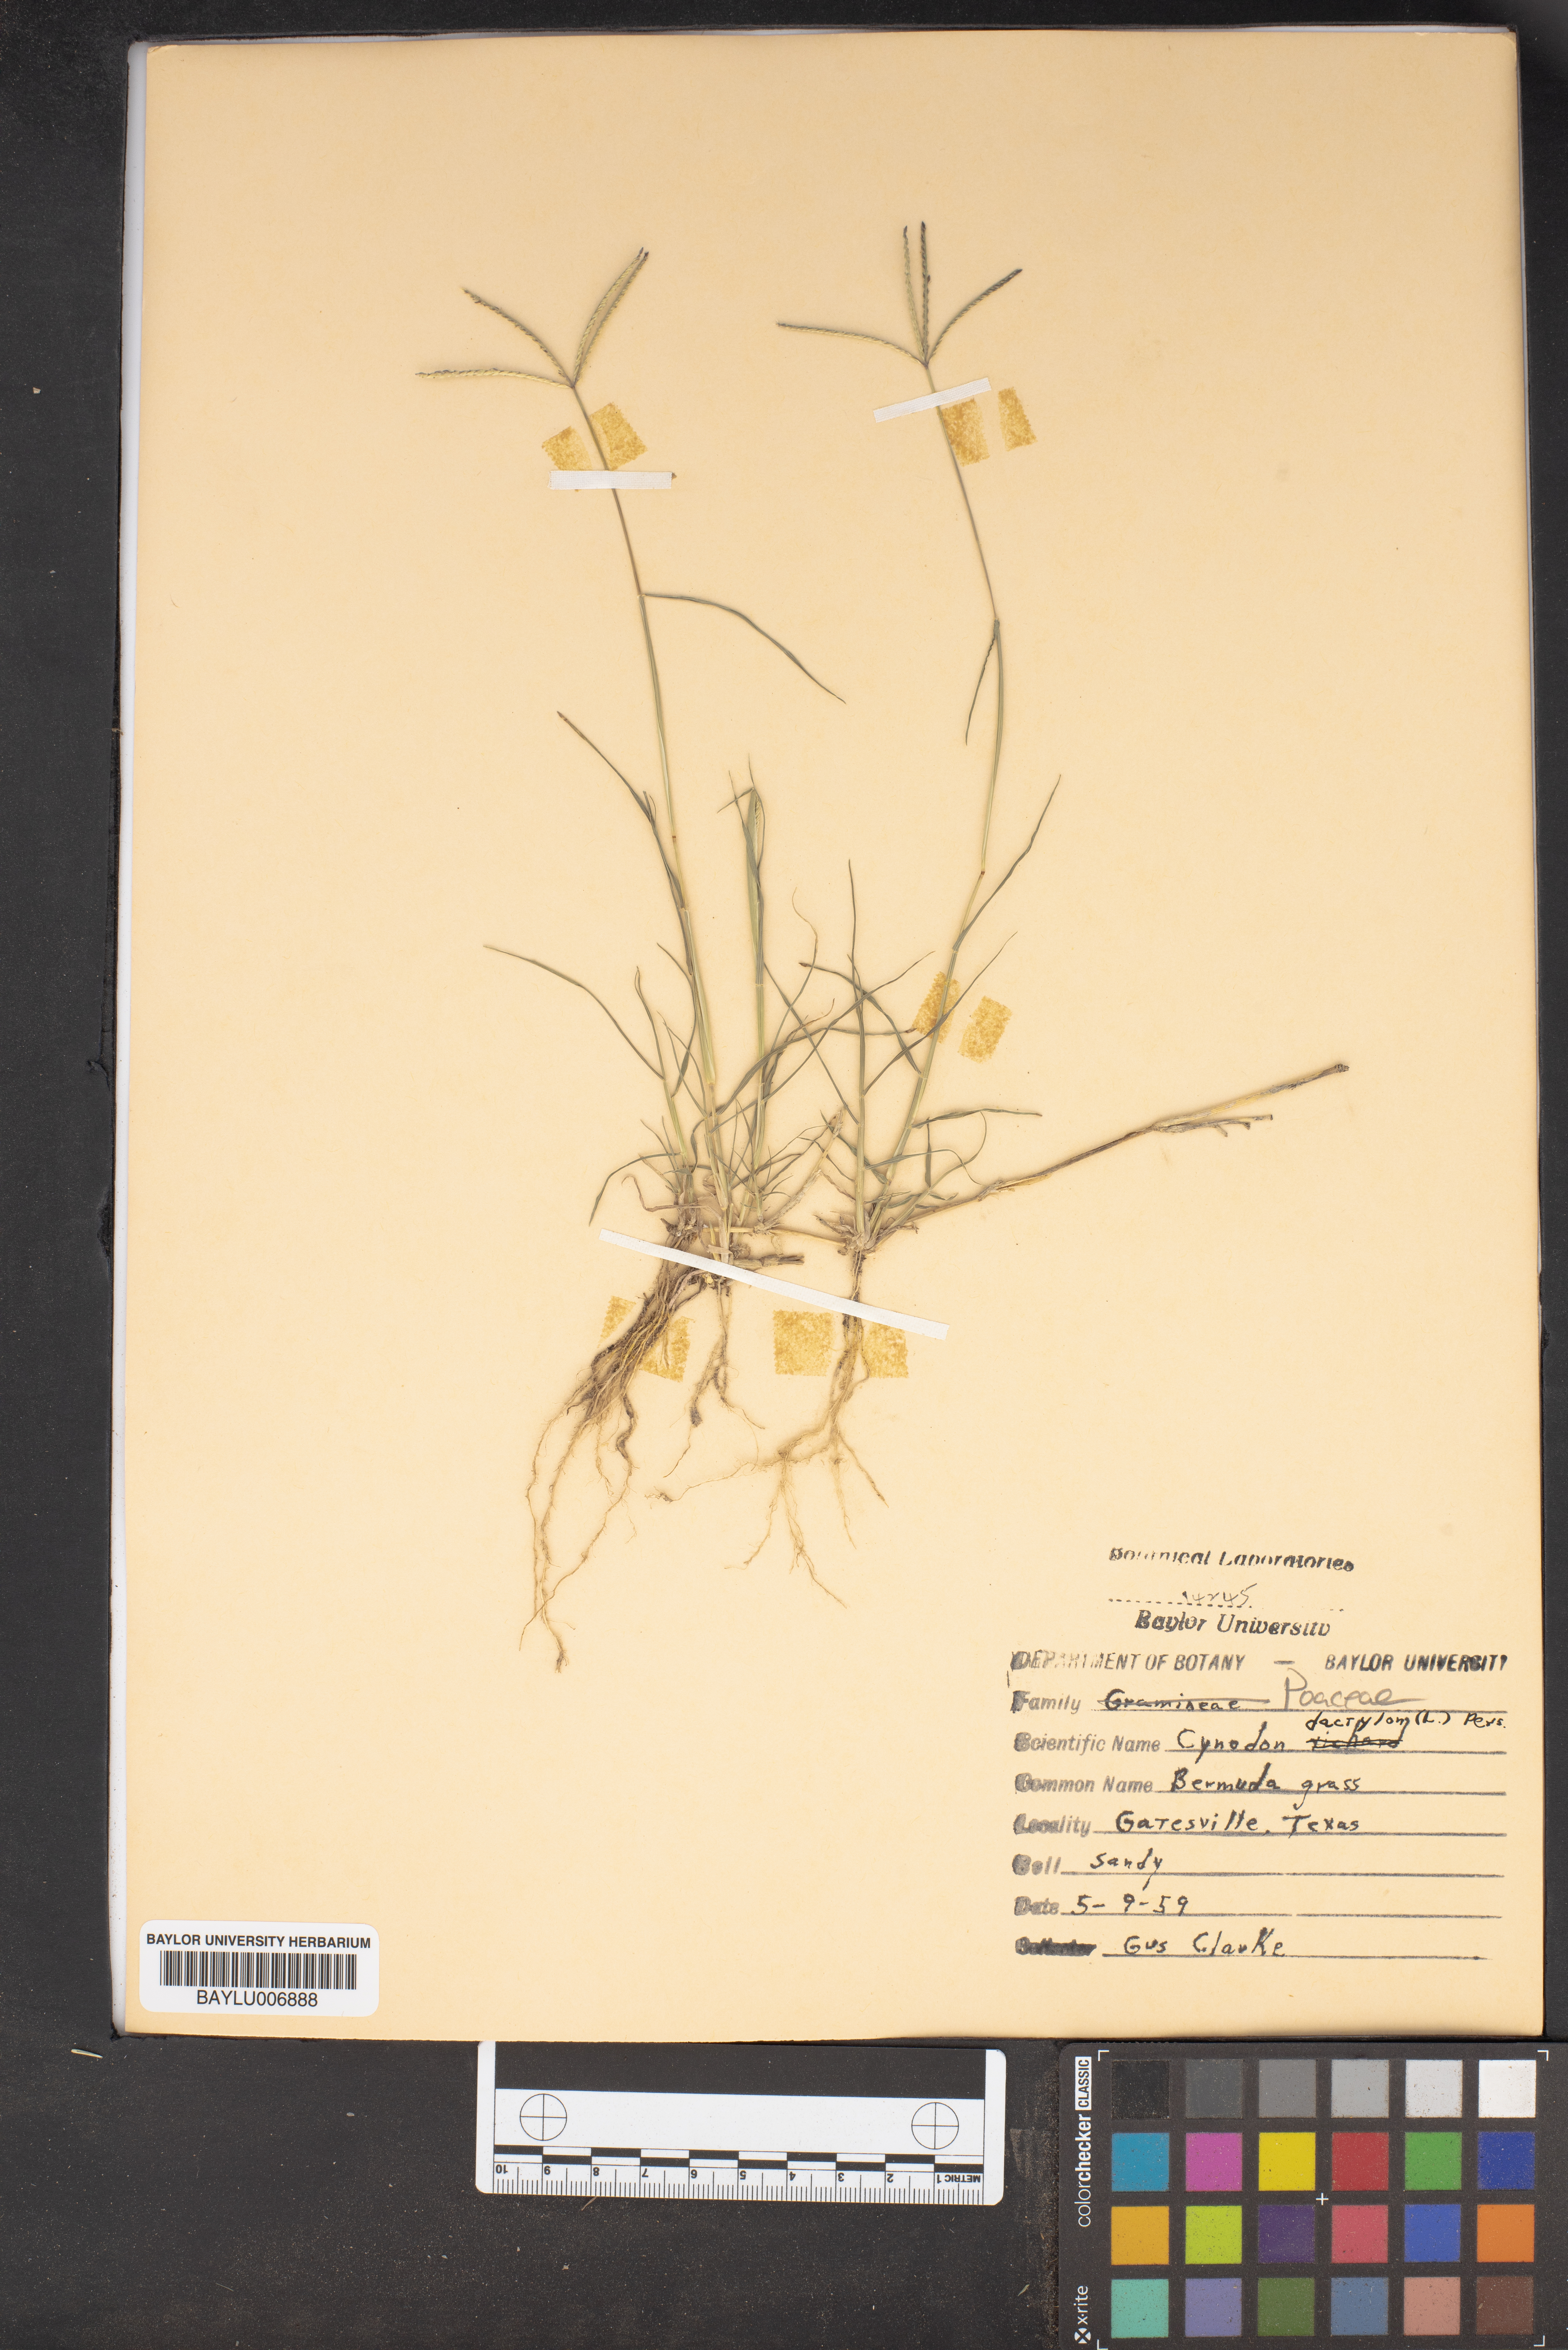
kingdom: Plantae
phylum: Tracheophyta
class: Liliopsida
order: Poales
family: Poaceae
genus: Cynodon
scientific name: Cynodon dactylon
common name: Bermuda grass
